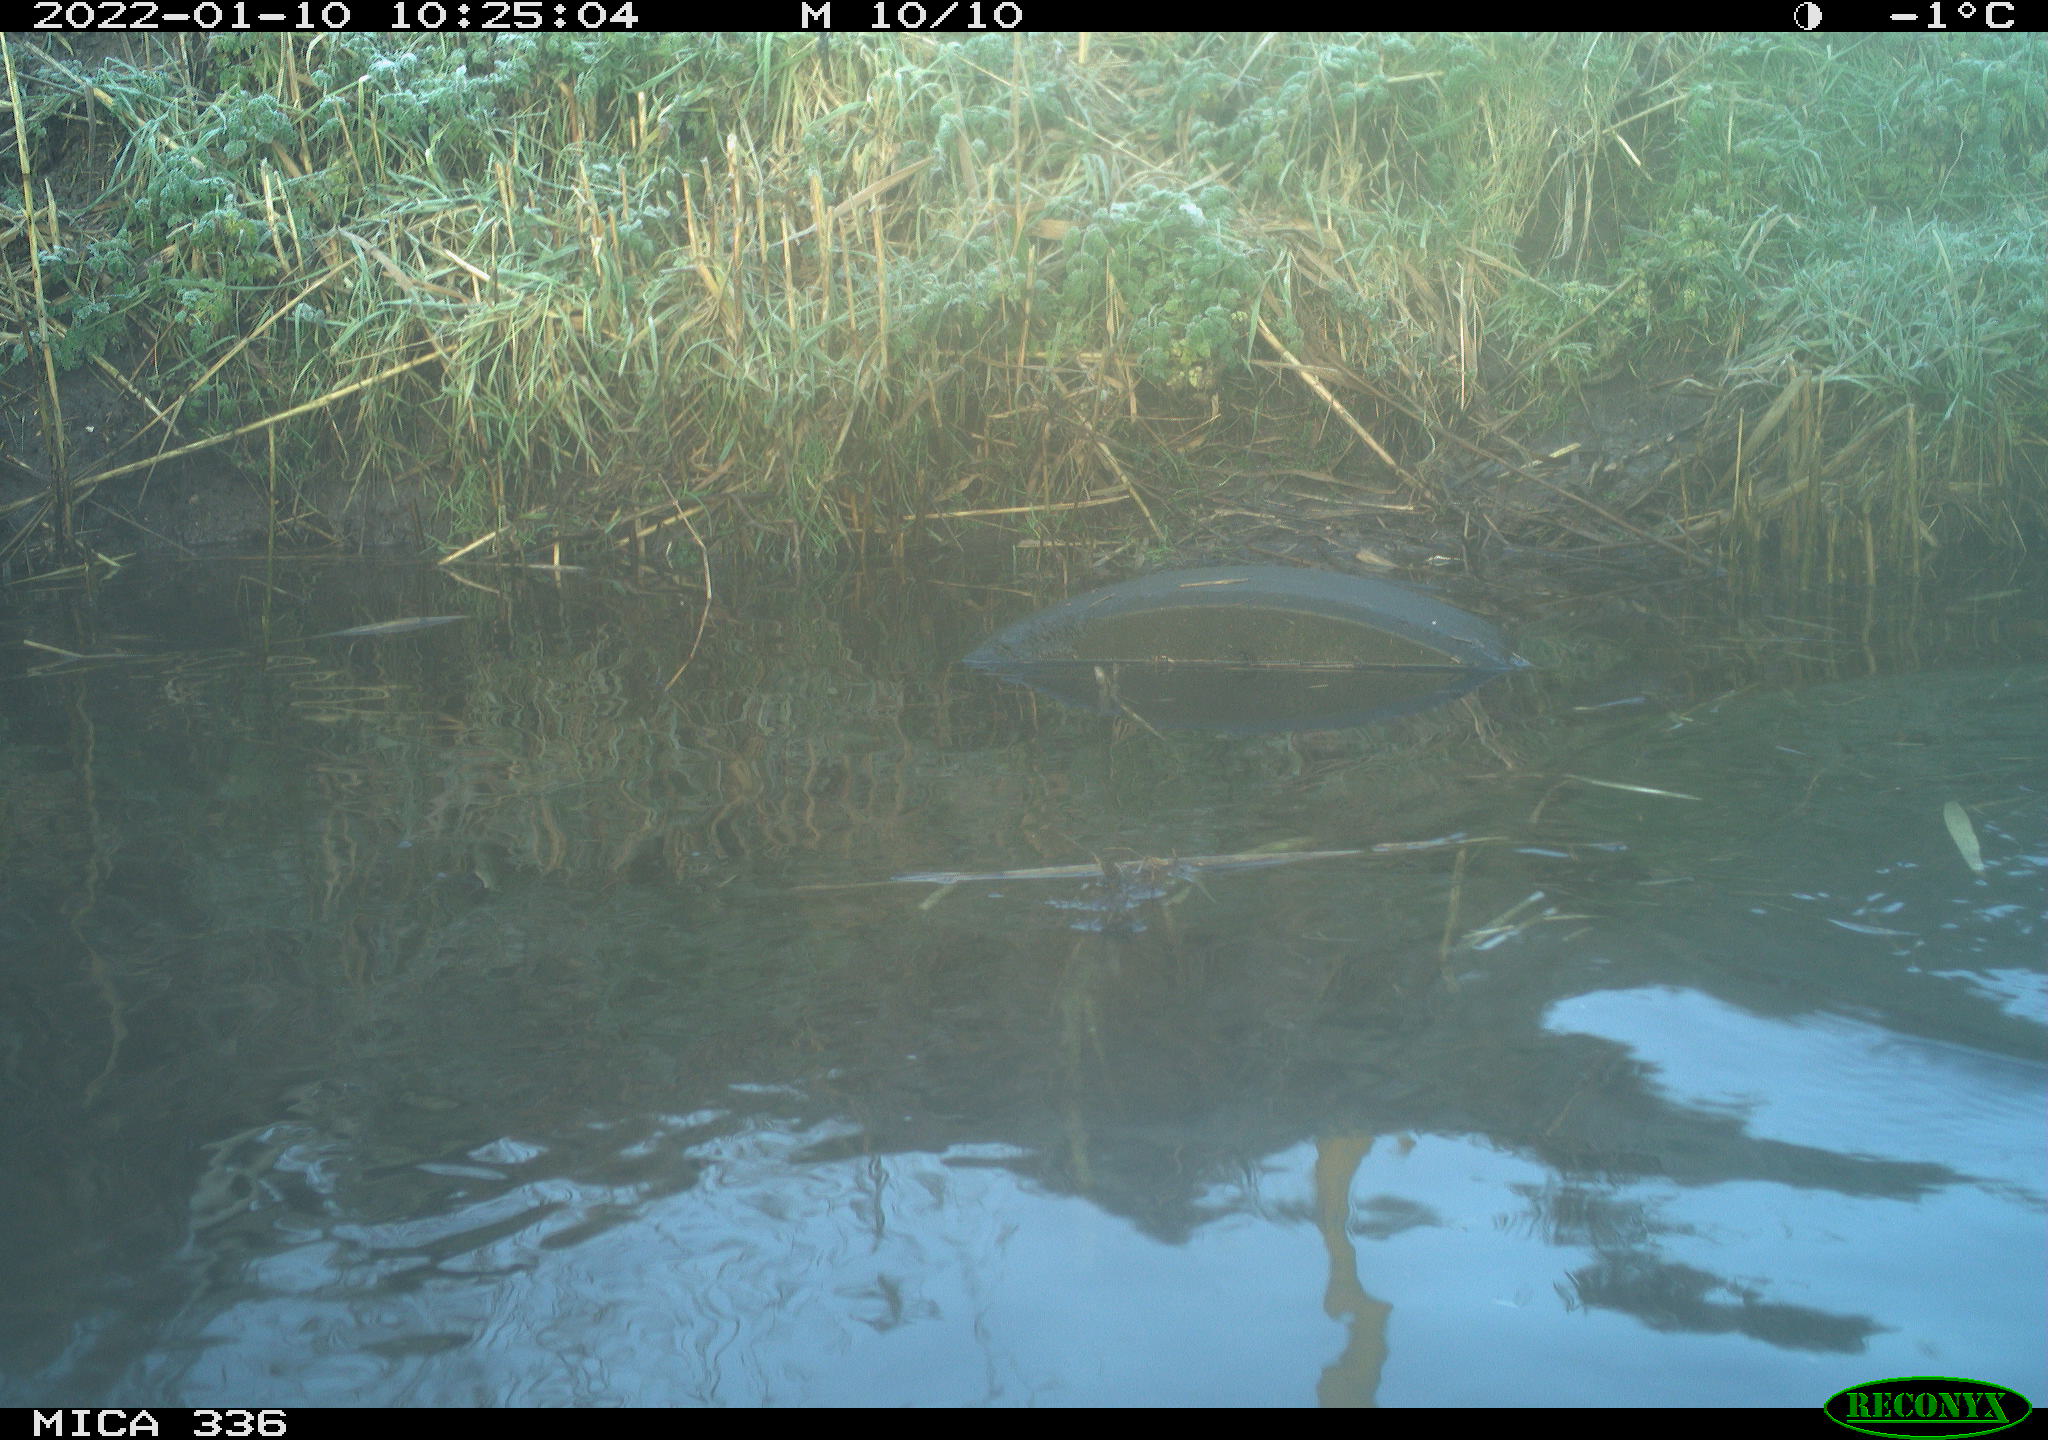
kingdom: Animalia
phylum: Chordata
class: Aves
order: Anseriformes
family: Anatidae
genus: Aythya
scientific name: Aythya fuligula
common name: Tufted duck
